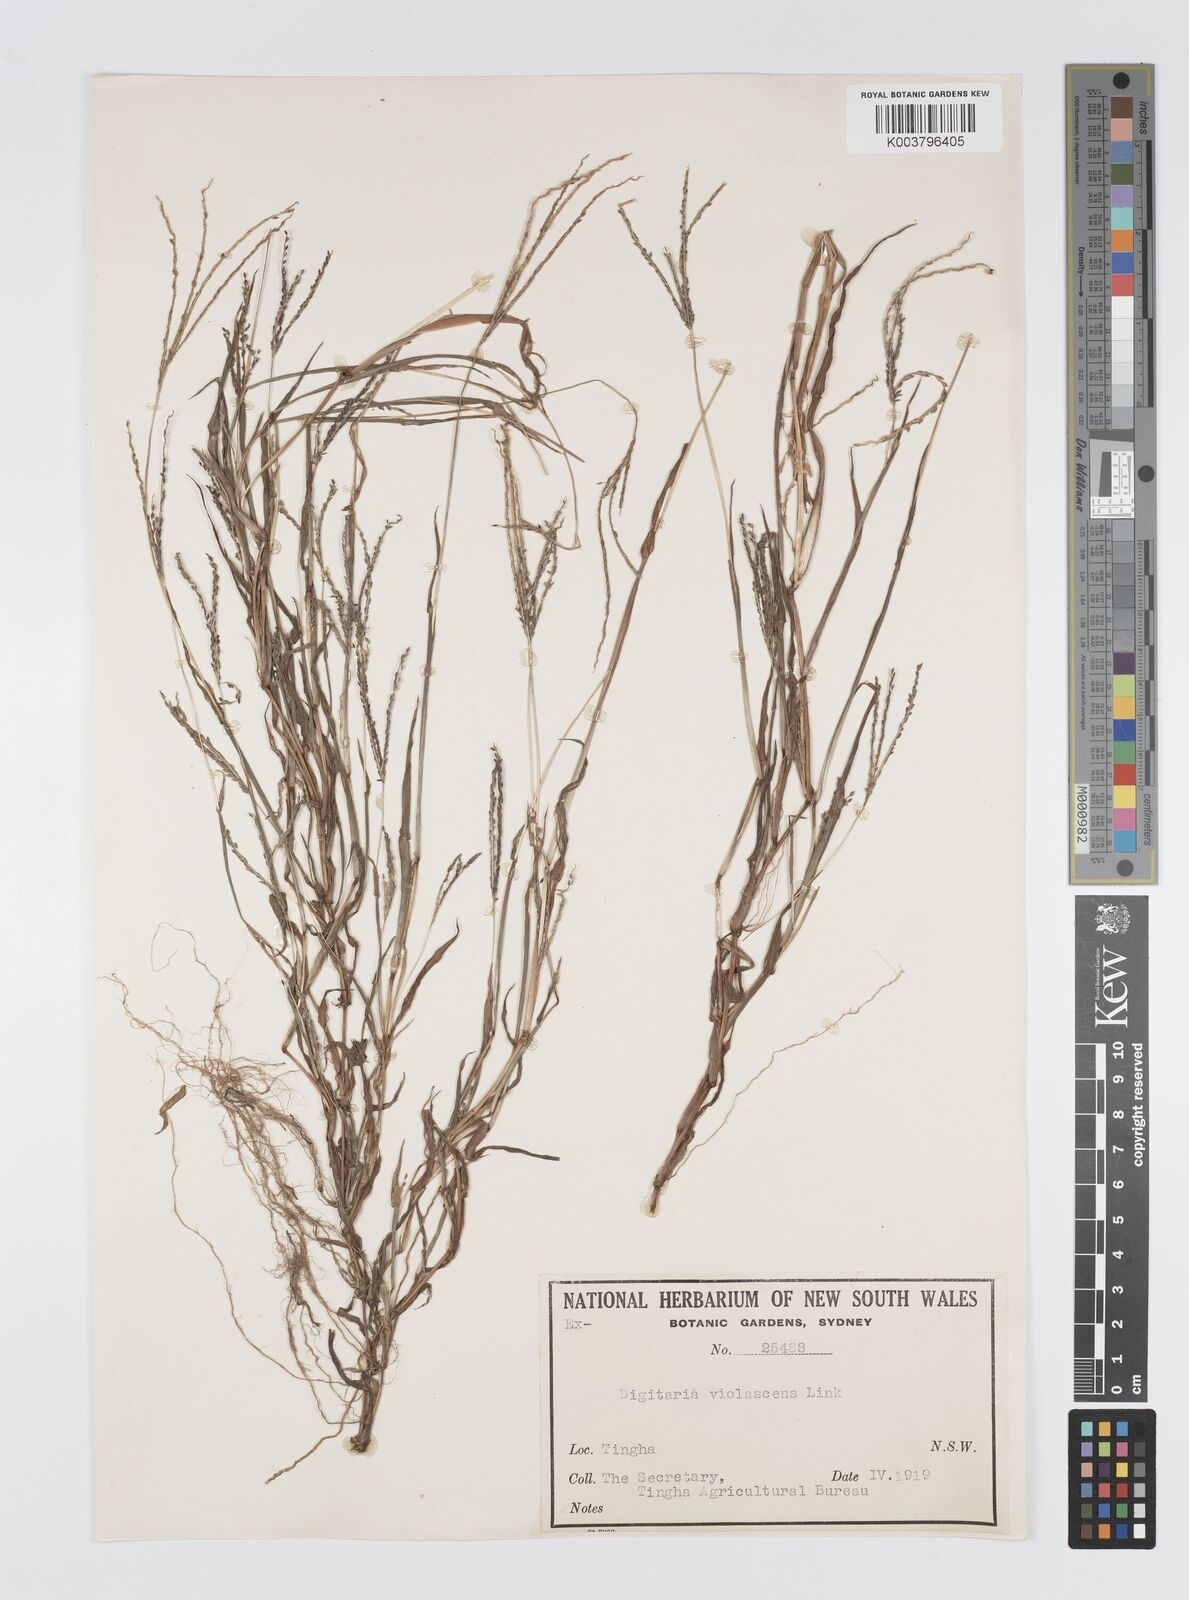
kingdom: Plantae
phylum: Tracheophyta
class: Liliopsida
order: Poales
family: Poaceae
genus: Digitaria
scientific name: Digitaria violascens
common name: Violet crabgrass
